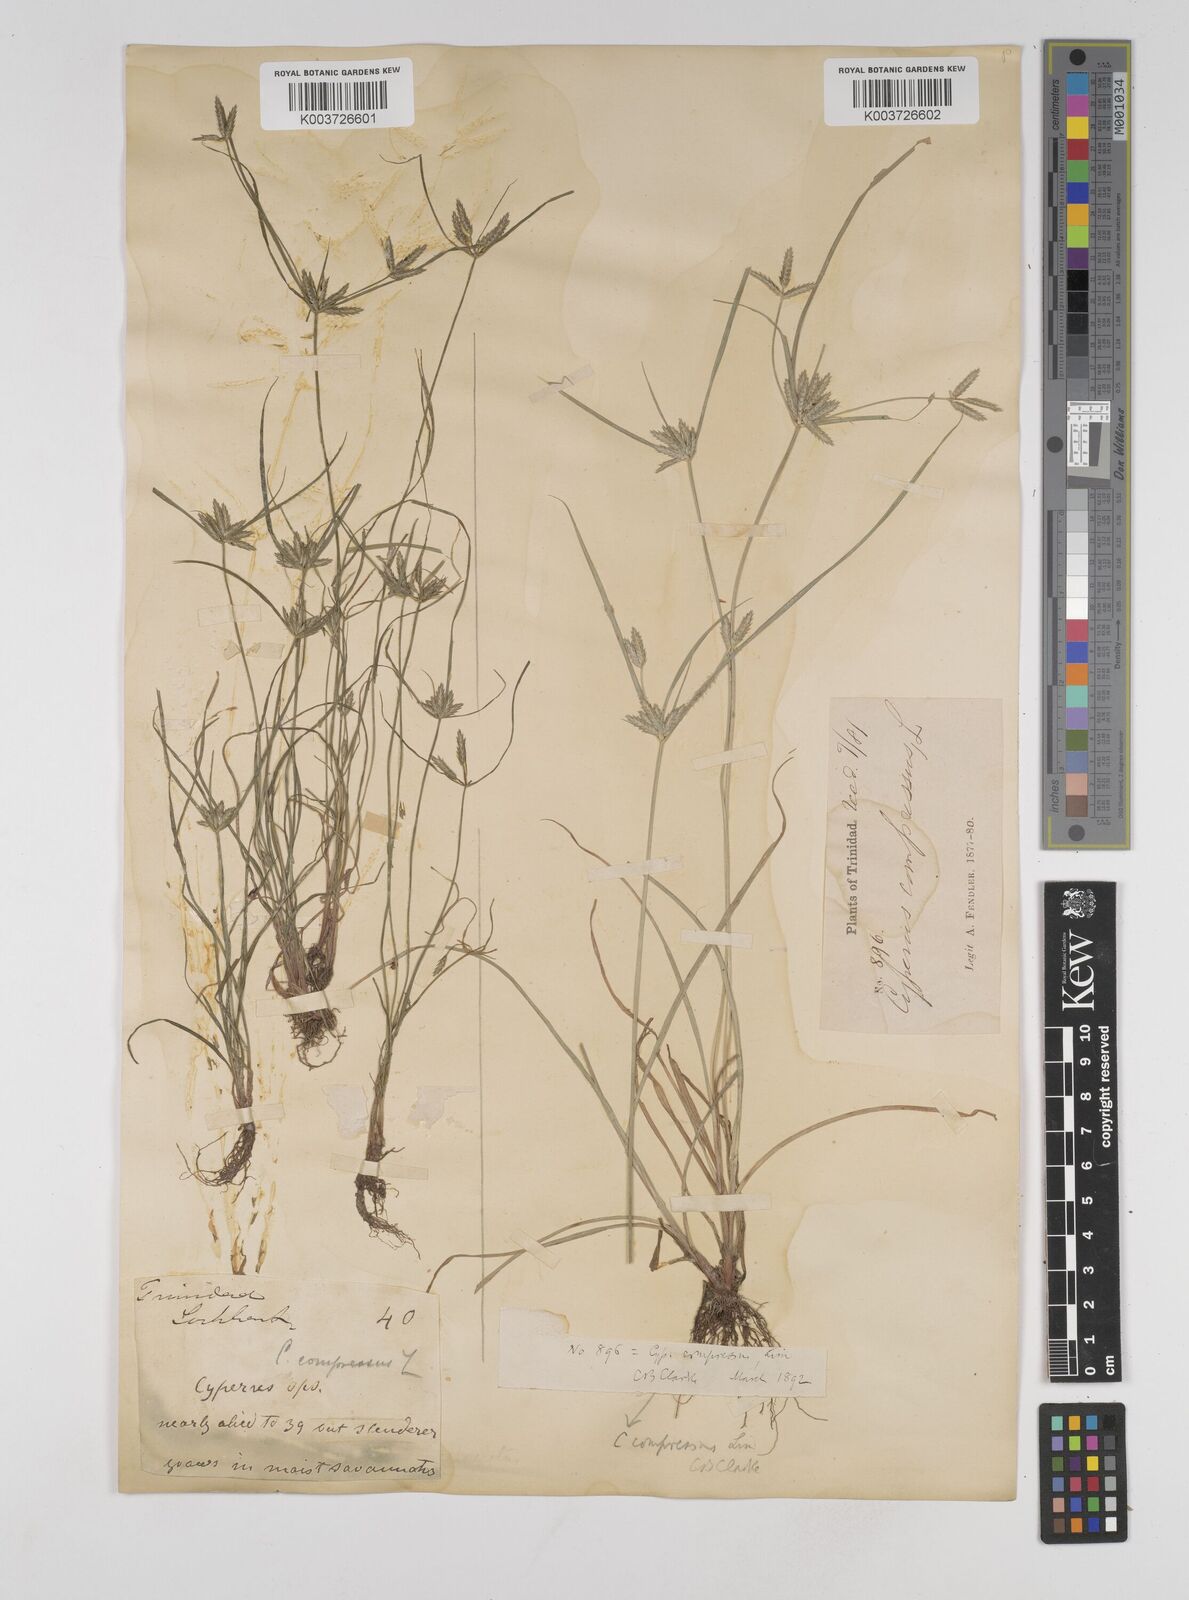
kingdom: Plantae
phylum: Tracheophyta
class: Liliopsida
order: Poales
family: Cyperaceae
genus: Cyperus
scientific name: Cyperus compressus
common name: Poorland flatsedge
